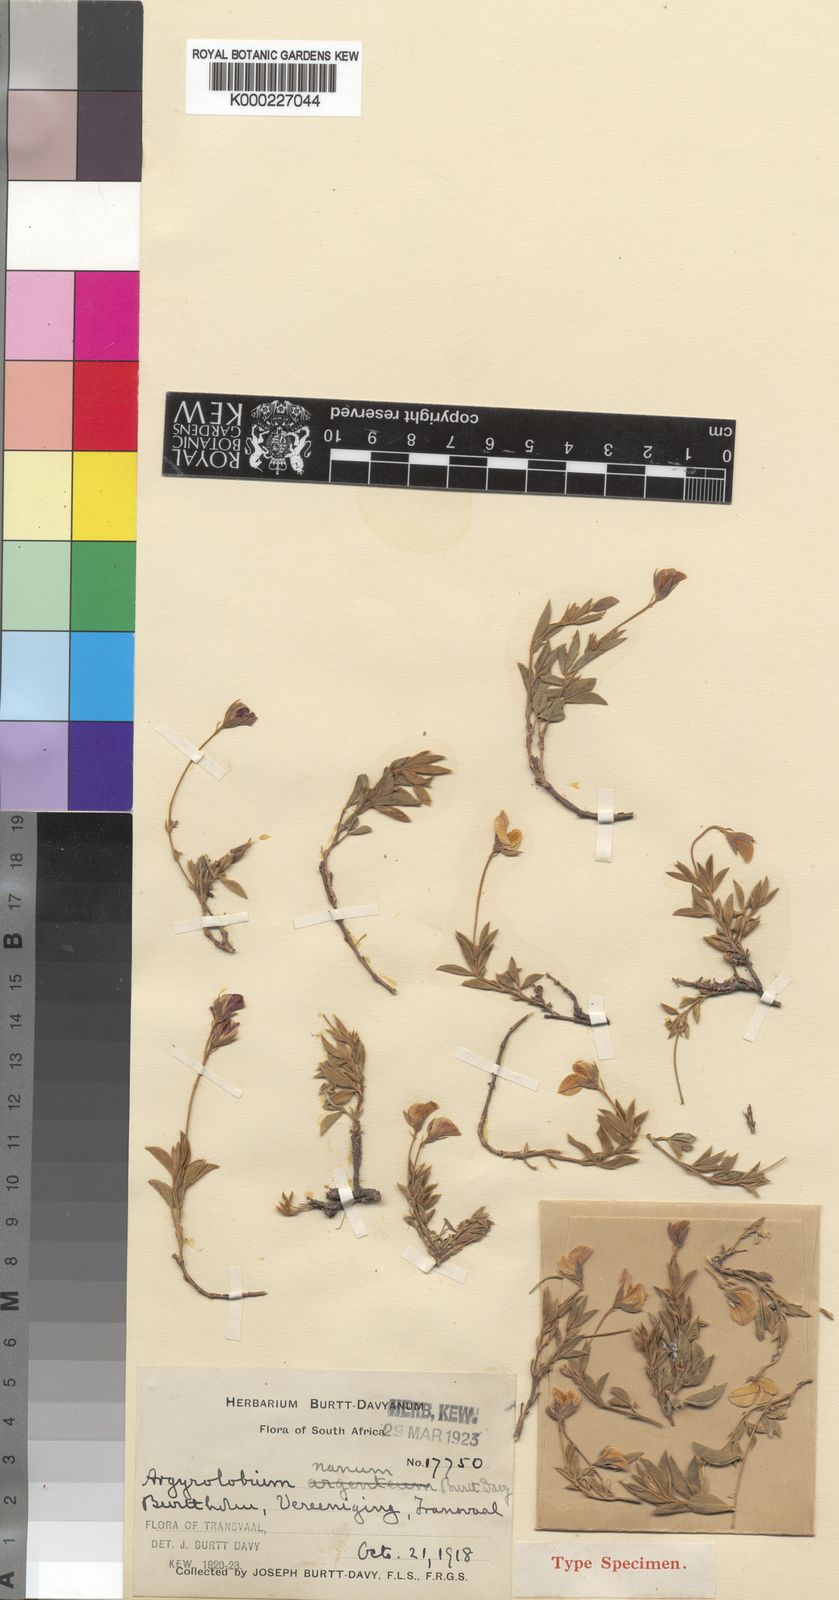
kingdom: Plantae
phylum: Tracheophyta
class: Magnoliopsida
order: Fabales
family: Fabaceae
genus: Argyrolobium
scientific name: Argyrolobium
